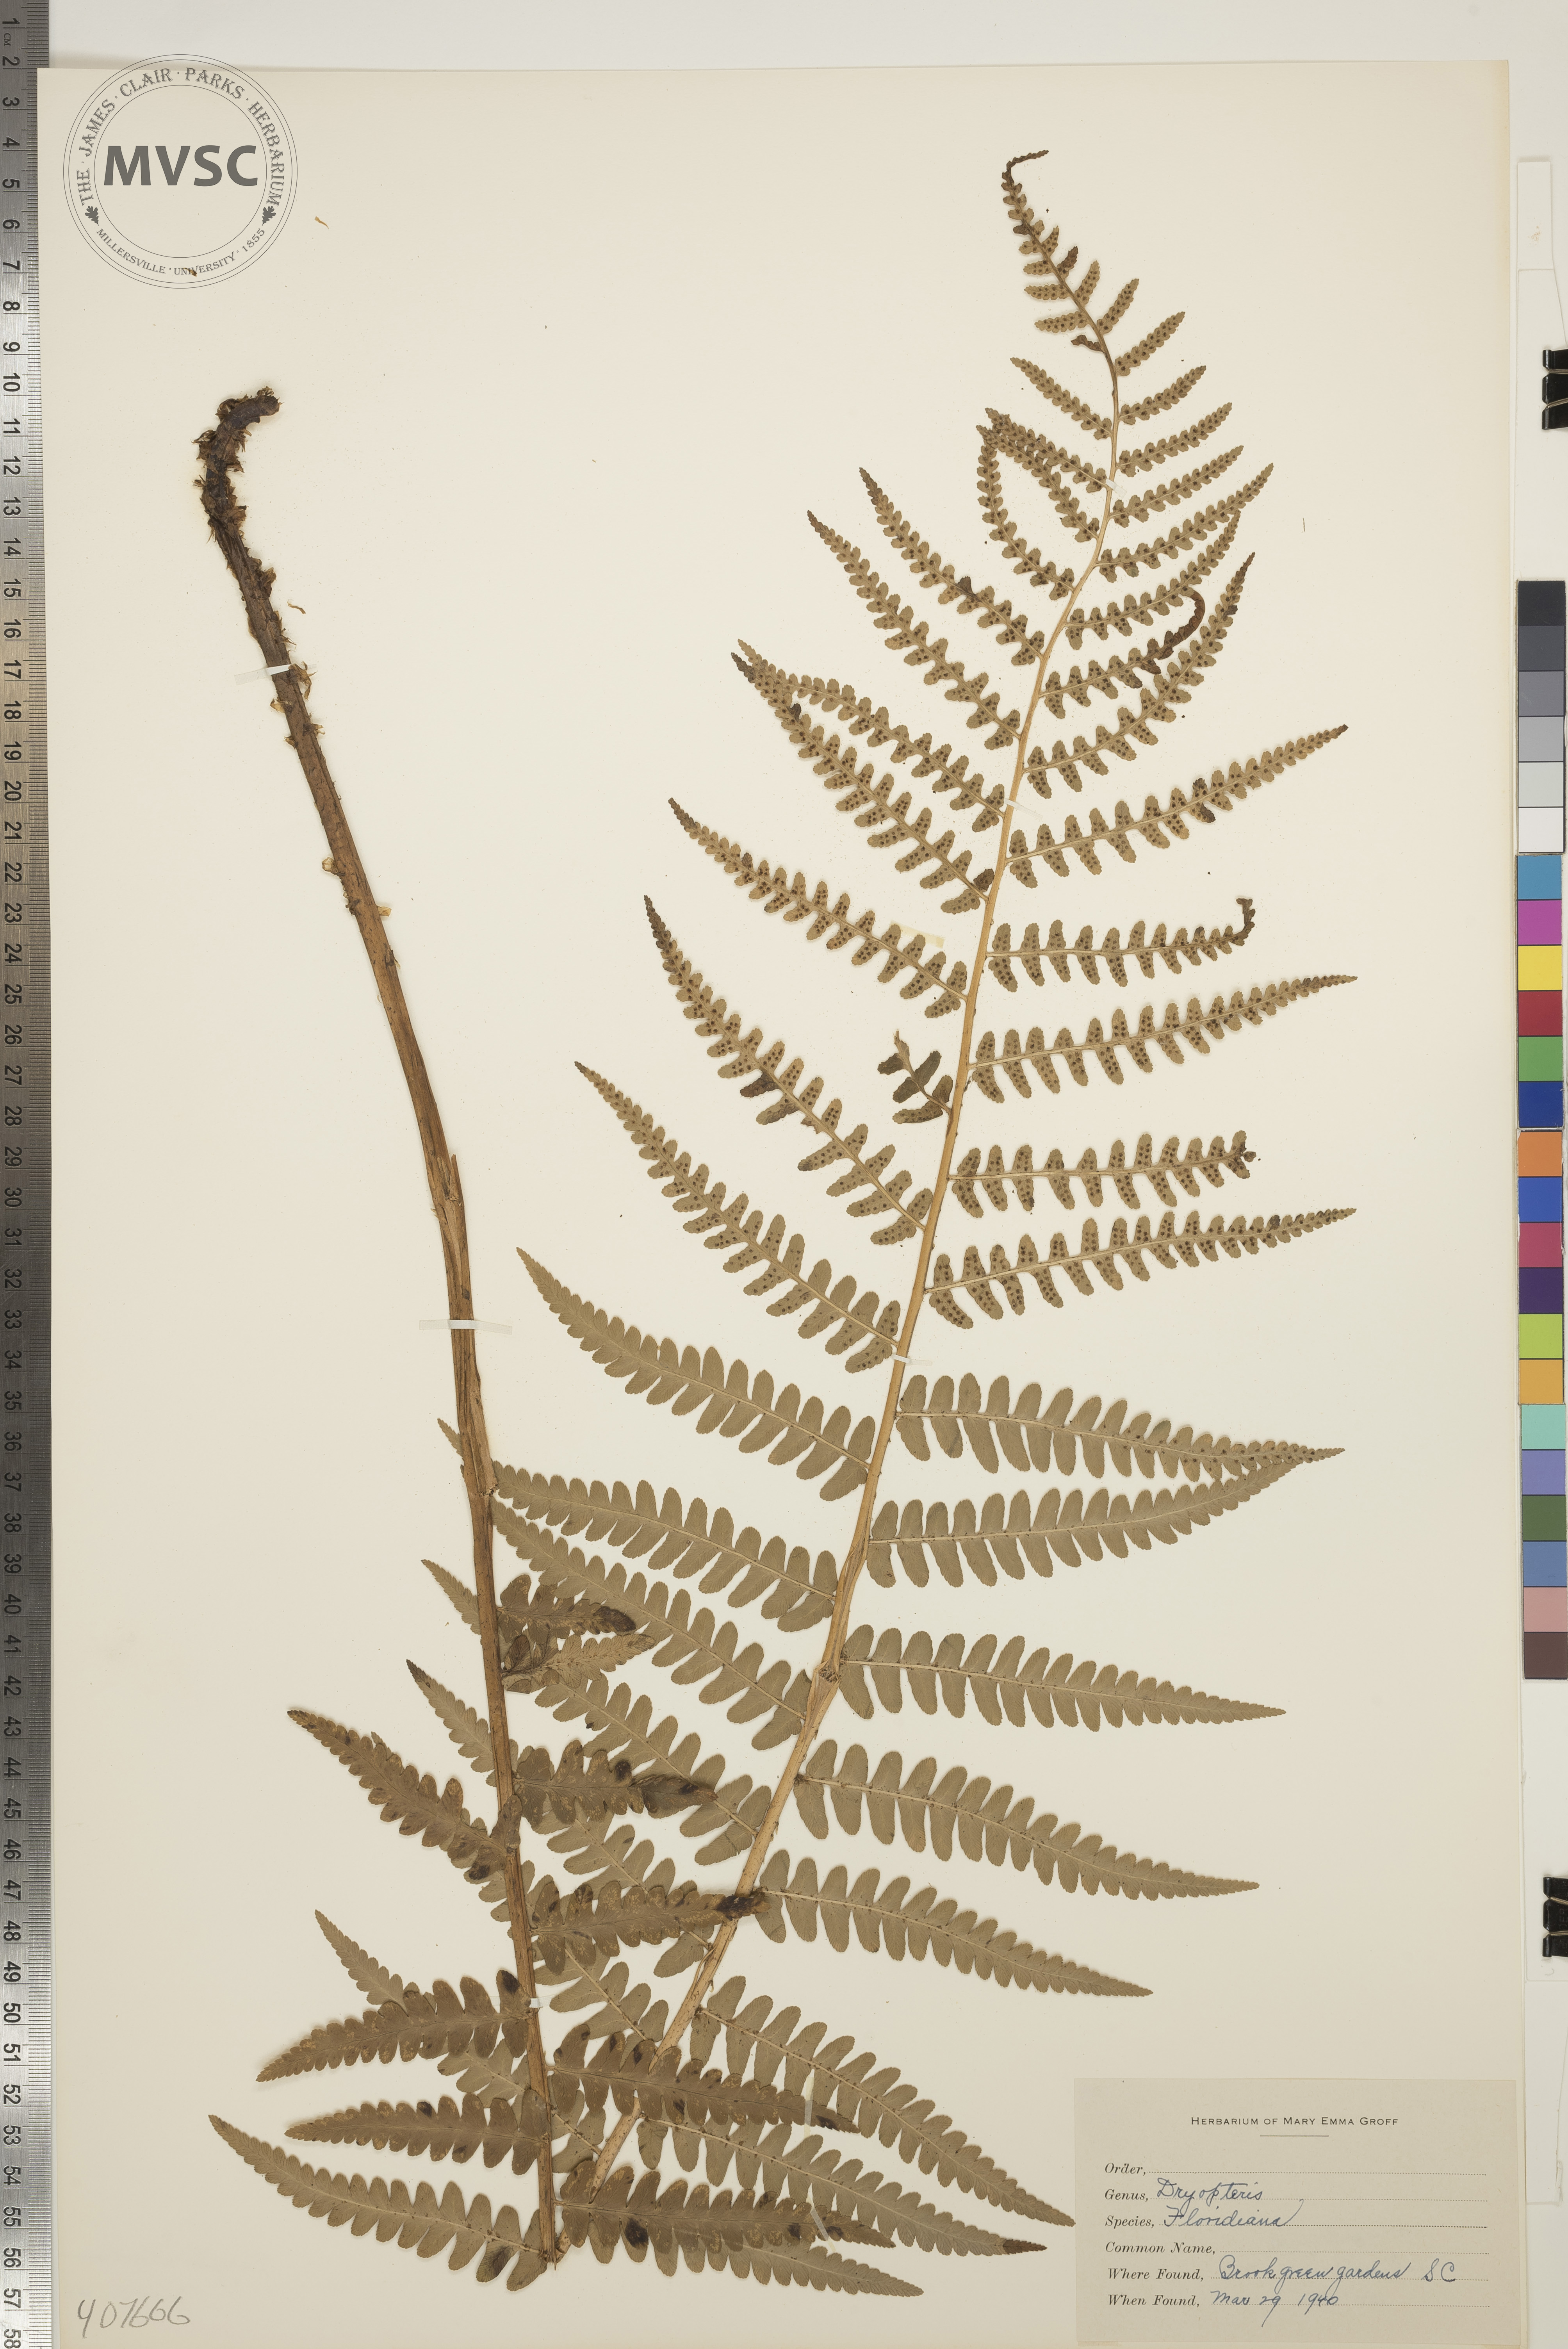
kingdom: Plantae
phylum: Tracheophyta
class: Polypodiopsida
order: Polypodiales
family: Dryopteridaceae
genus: Dryopteris
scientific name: Dryopteris ludoviciana
